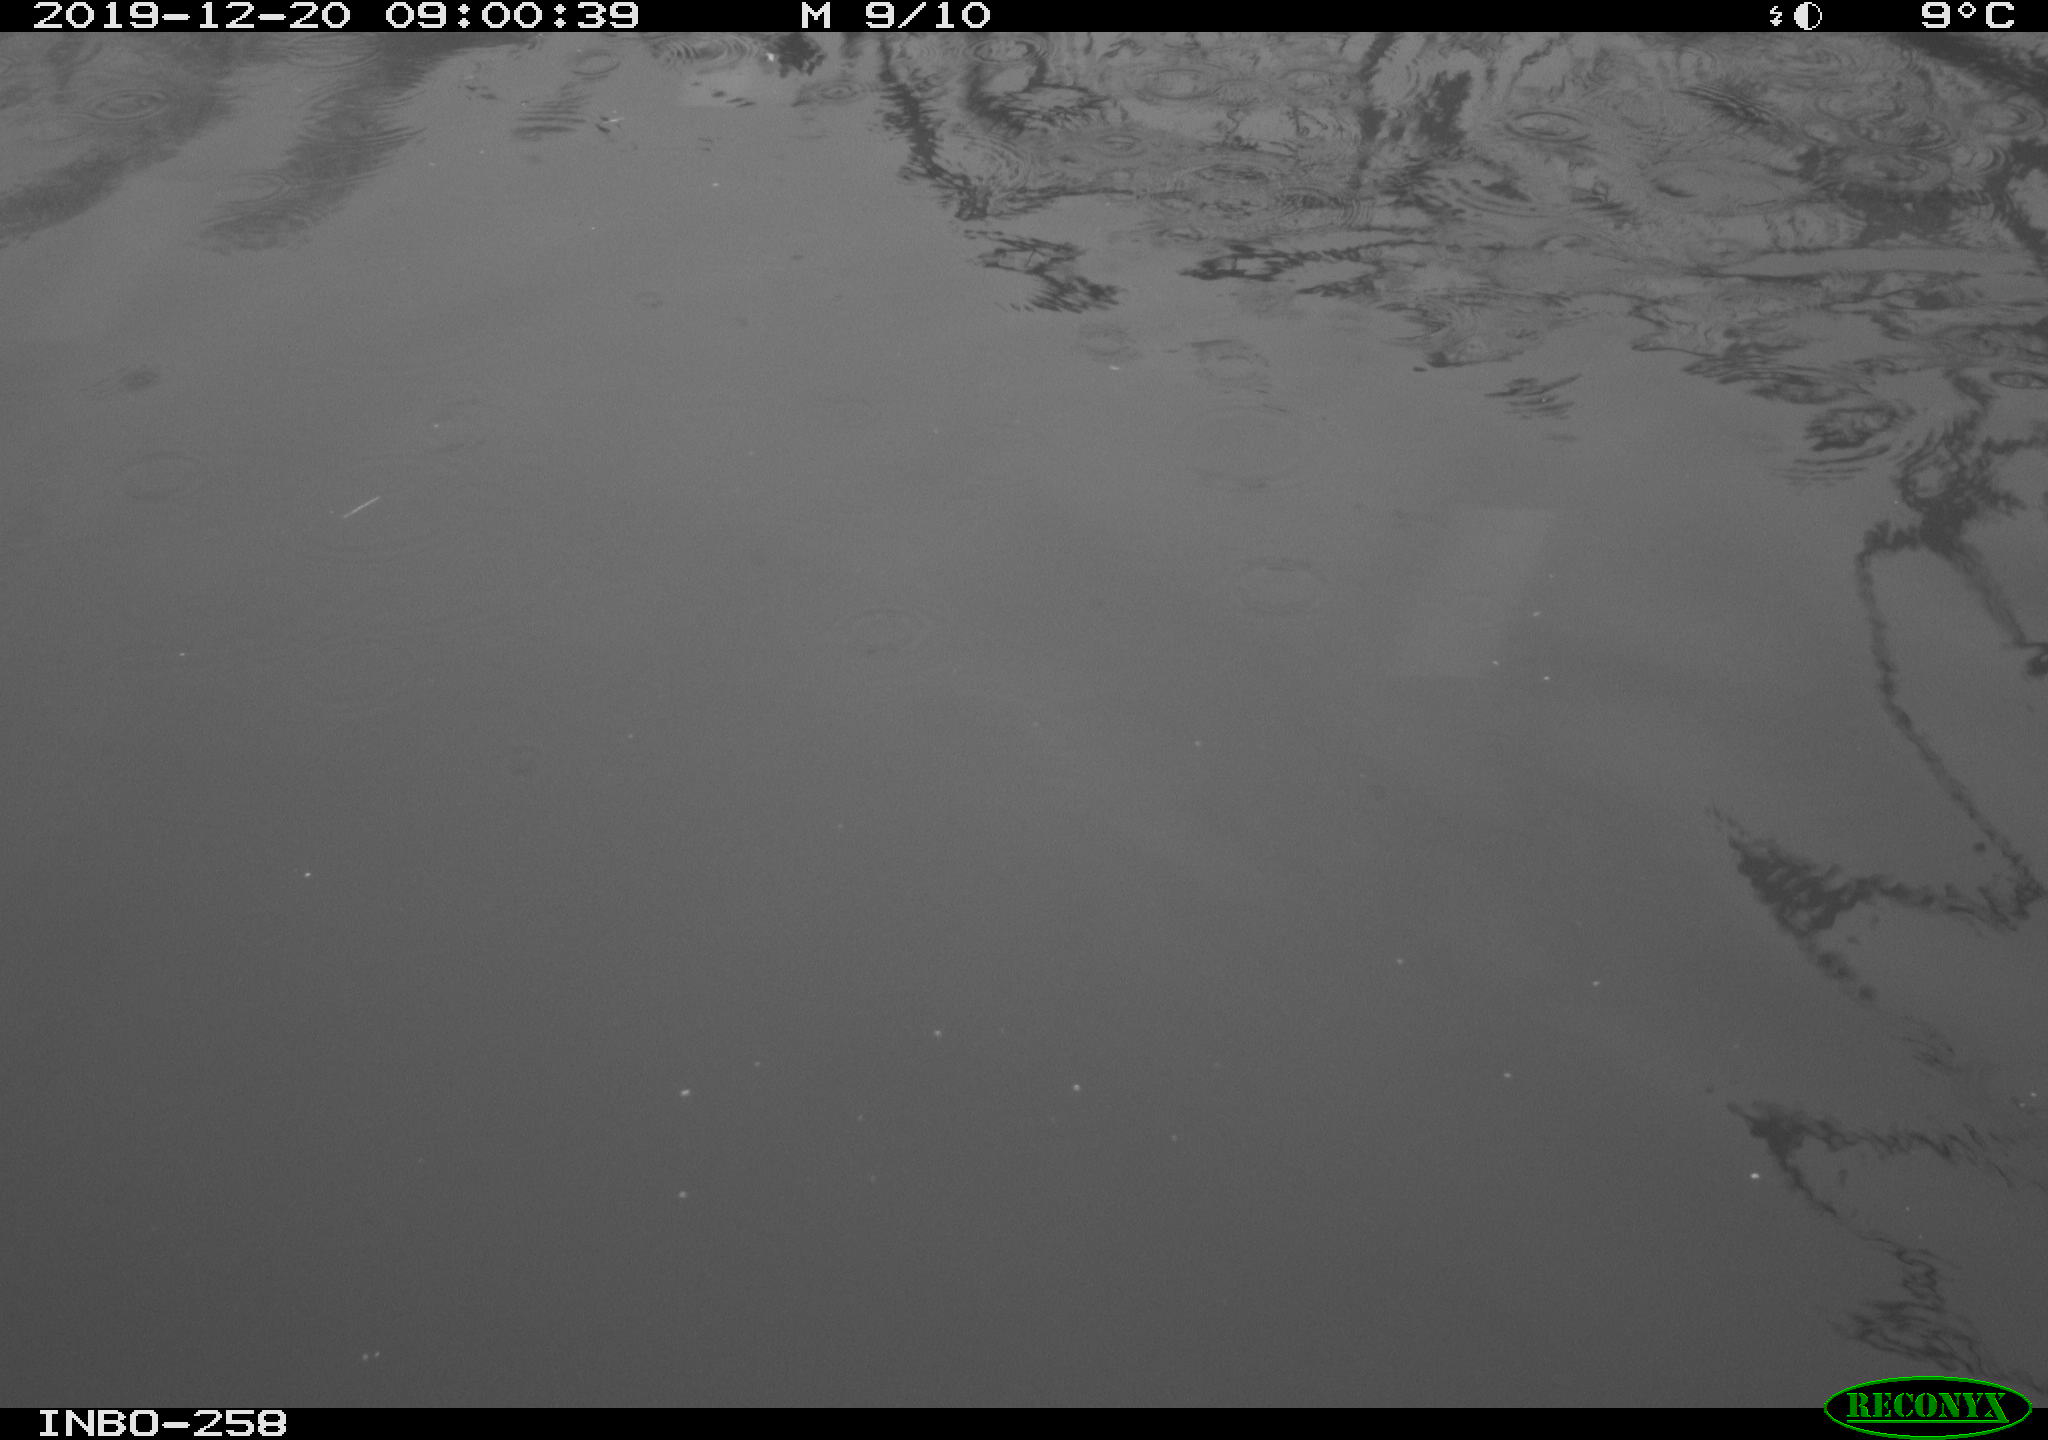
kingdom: Animalia
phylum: Chordata
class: Aves
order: Gruiformes
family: Rallidae
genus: Gallinula
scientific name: Gallinula chloropus
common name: Common moorhen
